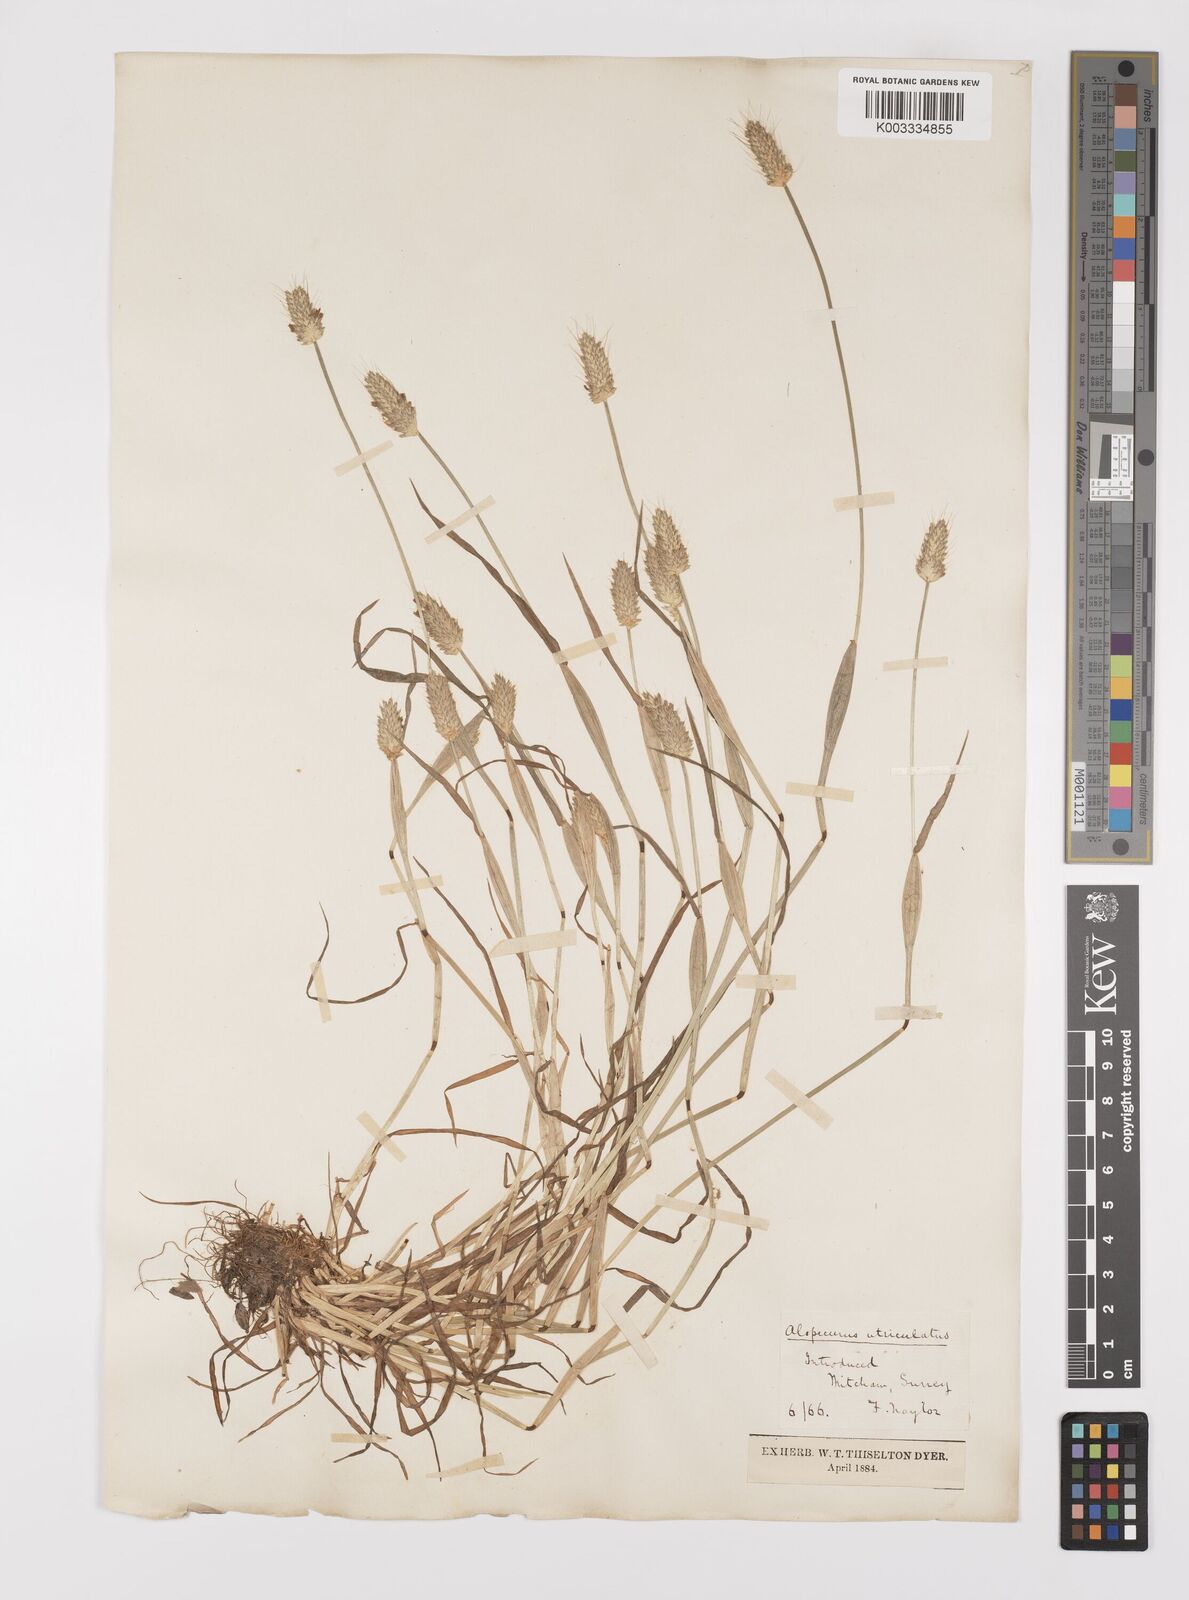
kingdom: Plantae
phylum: Tracheophyta
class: Liliopsida
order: Poales
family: Poaceae
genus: Alopecurus
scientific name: Alopecurus rendlei
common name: Rendle's meadow foxtail
